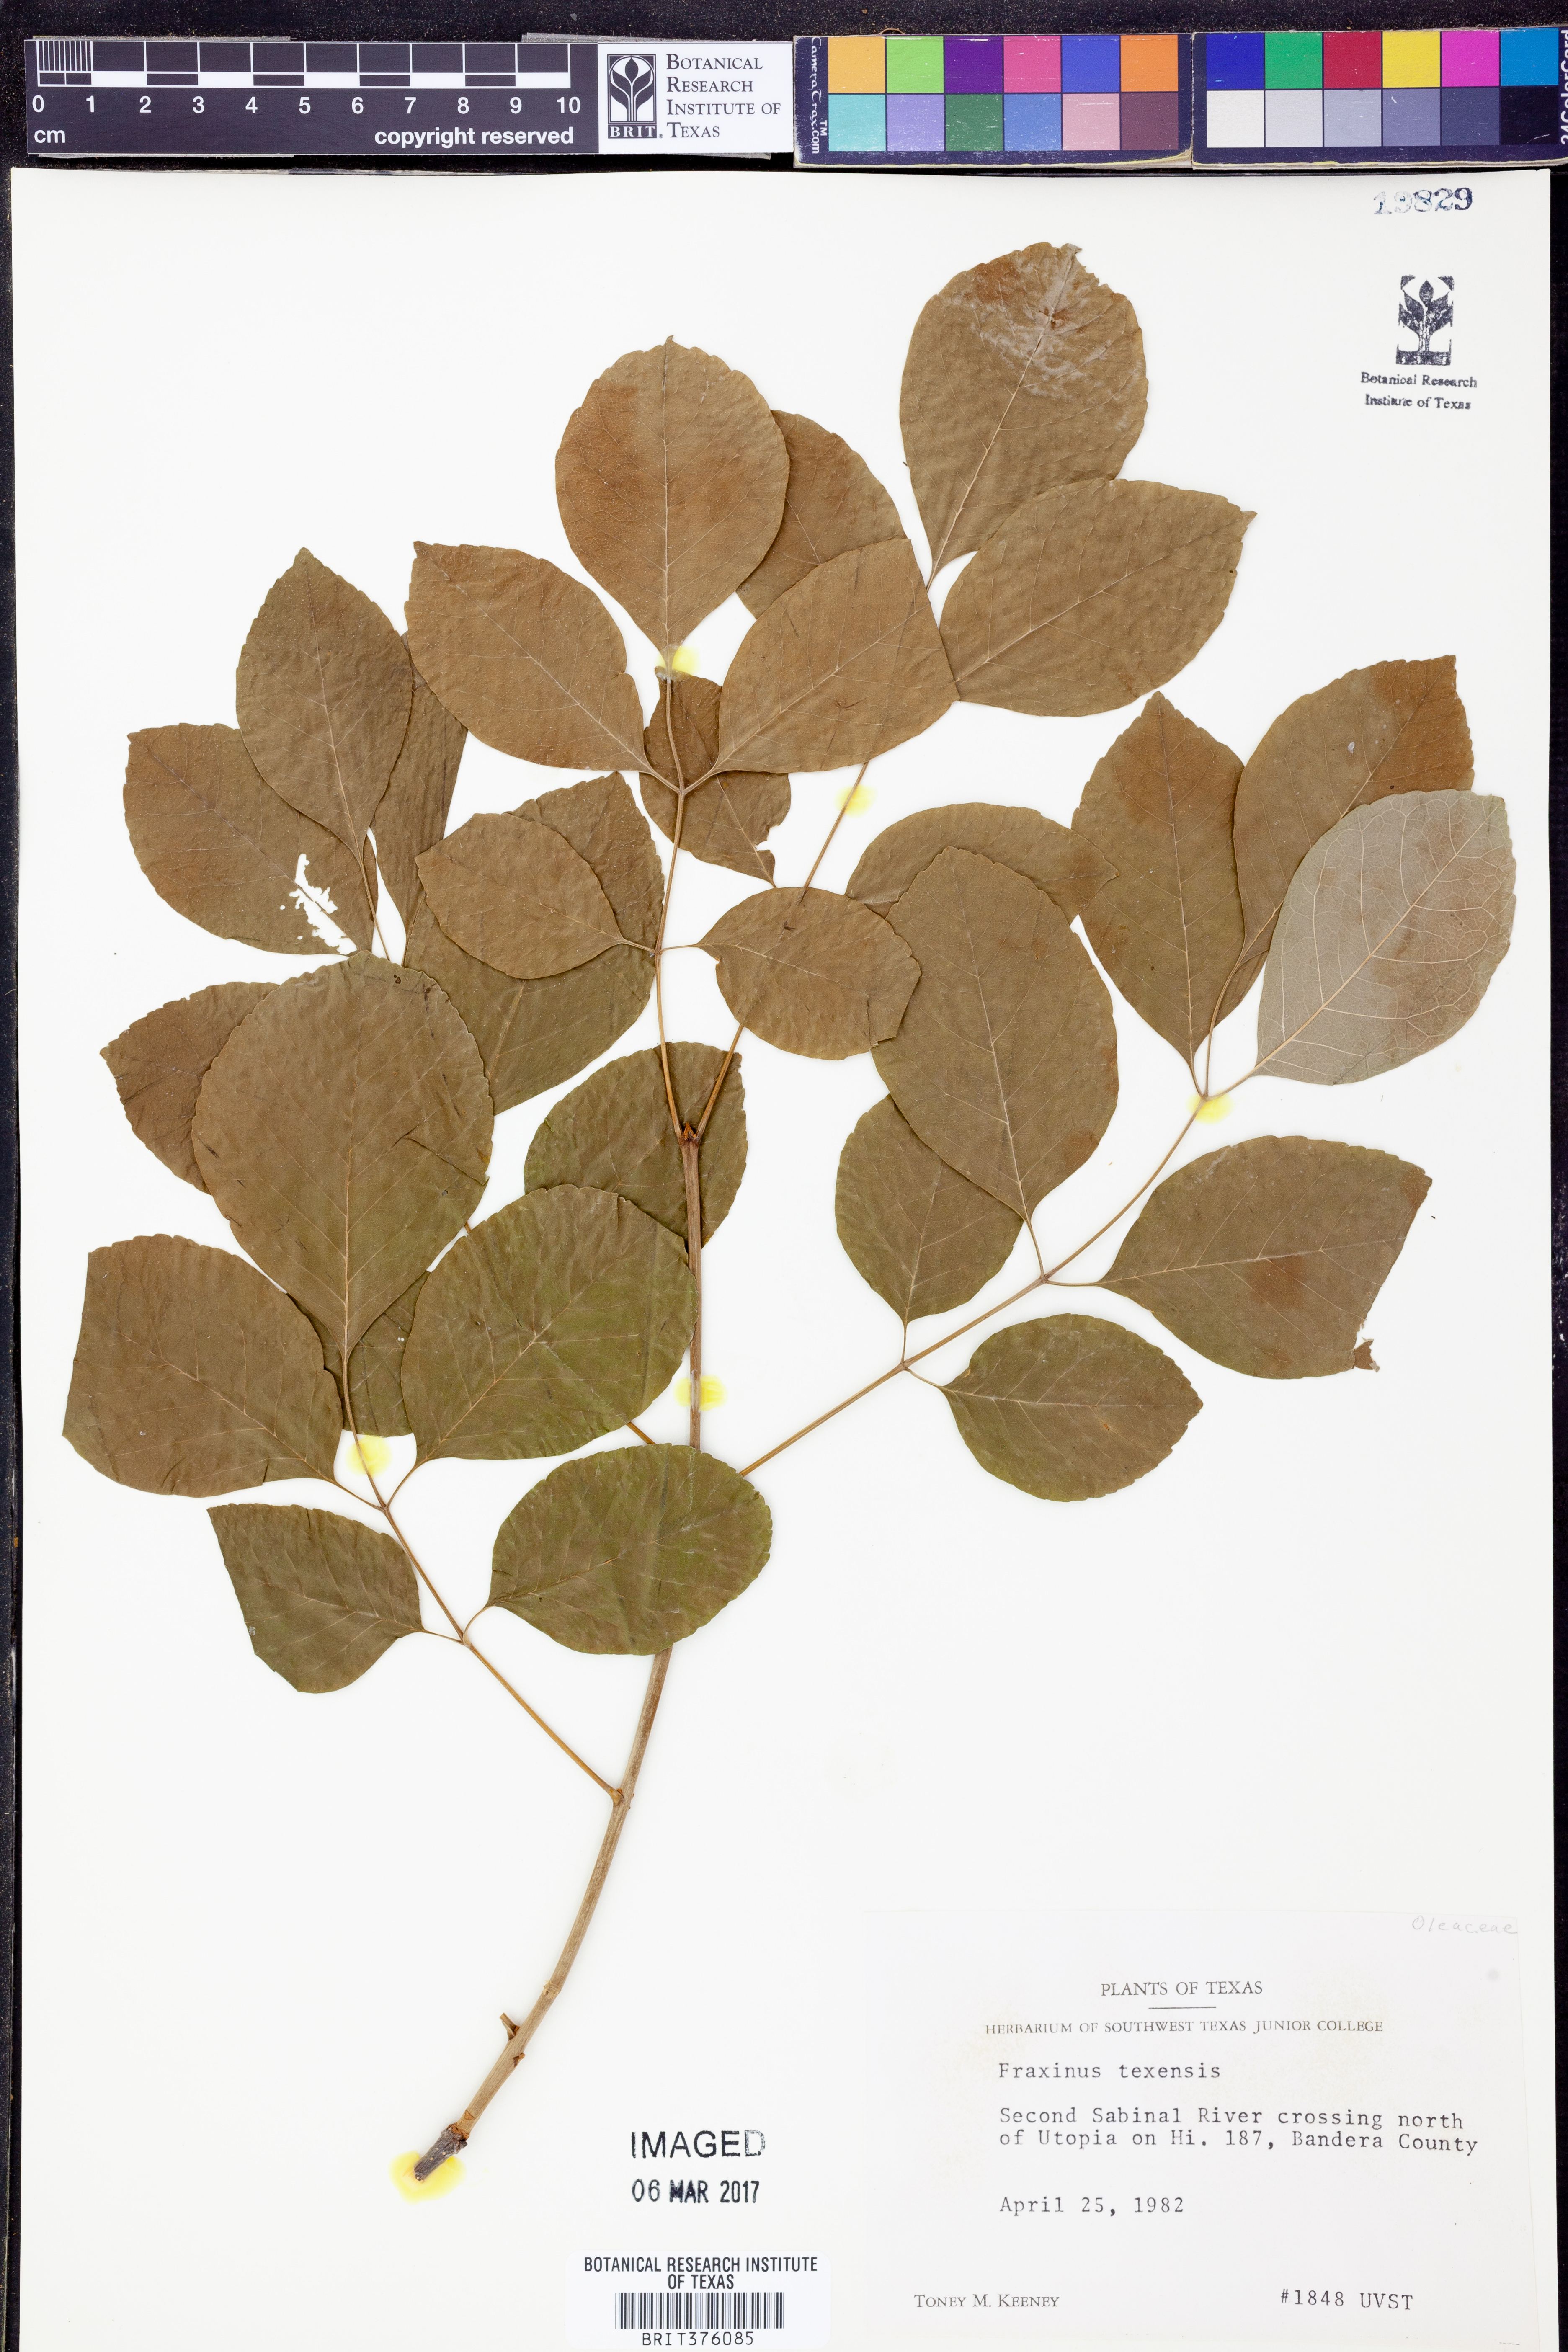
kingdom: Plantae
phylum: Tracheophyta
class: Magnoliopsida
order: Lamiales
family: Oleaceae
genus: Fraxinus
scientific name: Fraxinus albicans
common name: Texas ash
